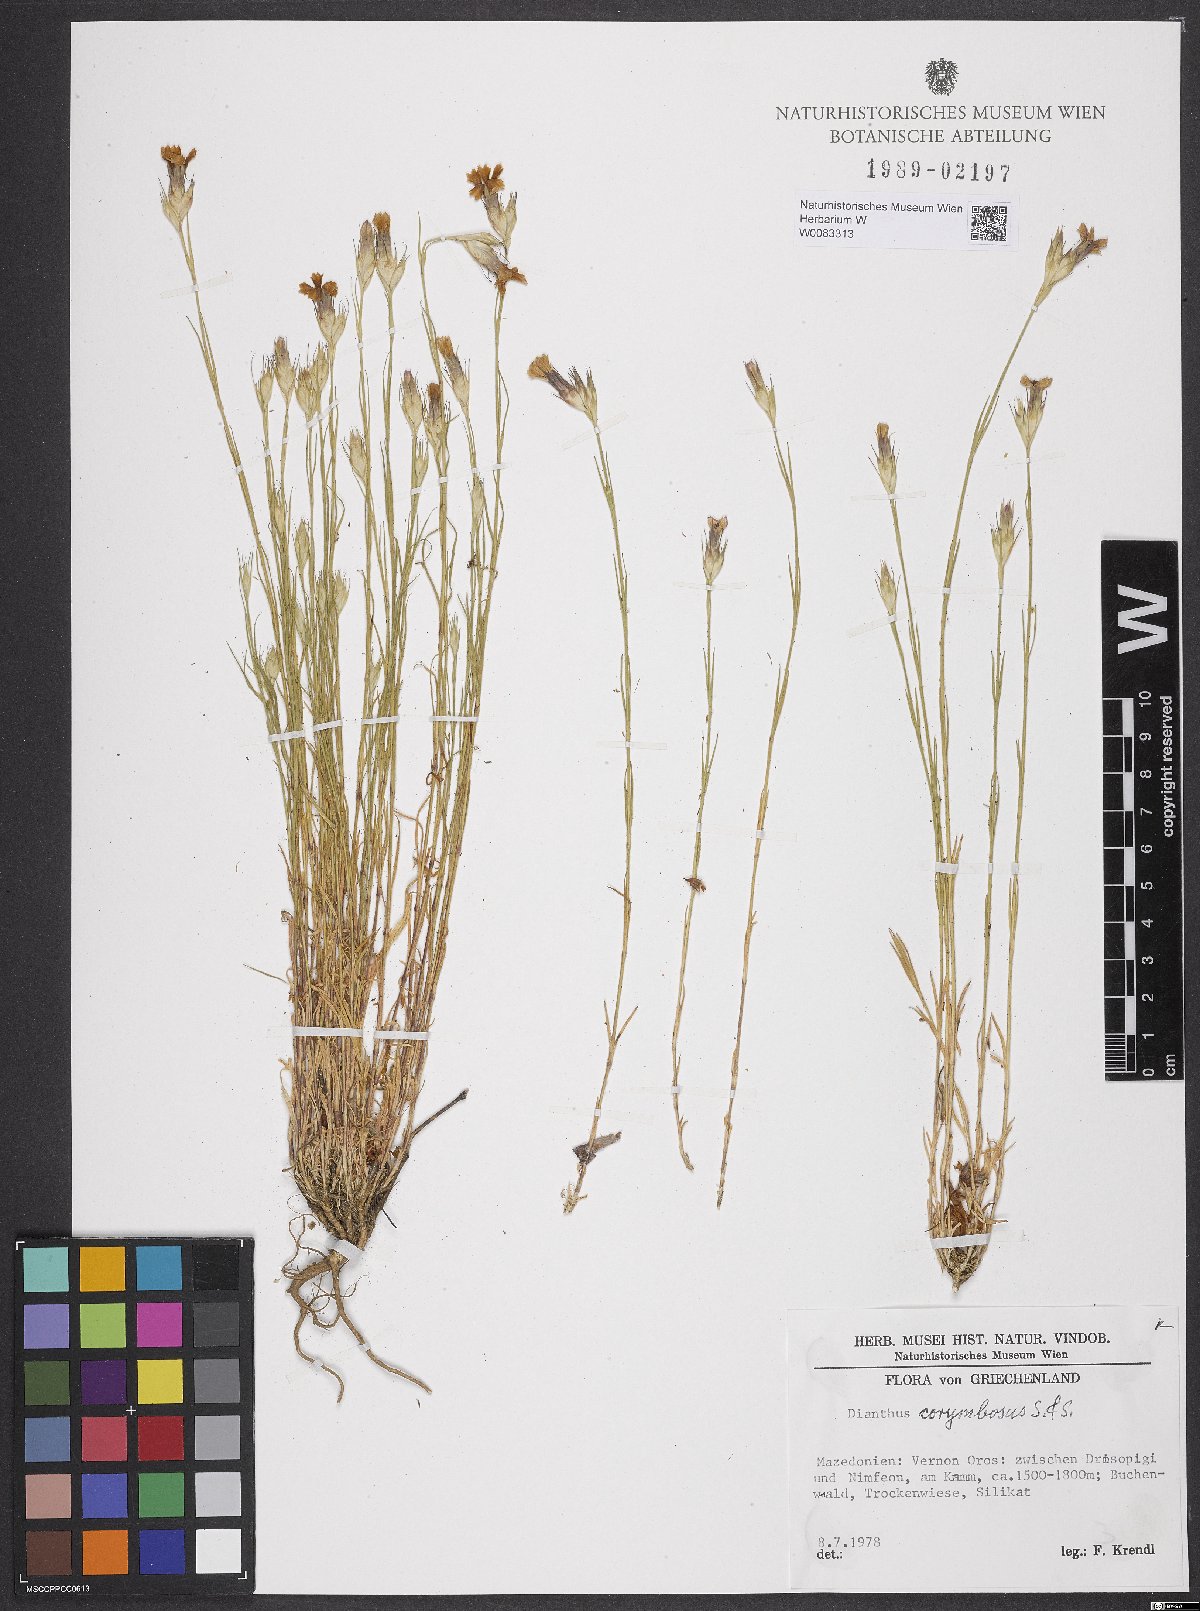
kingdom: Plantae
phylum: Tracheophyta
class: Magnoliopsida
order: Caryophyllales
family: Caryophyllaceae
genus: Dianthus
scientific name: Dianthus corymbosus
